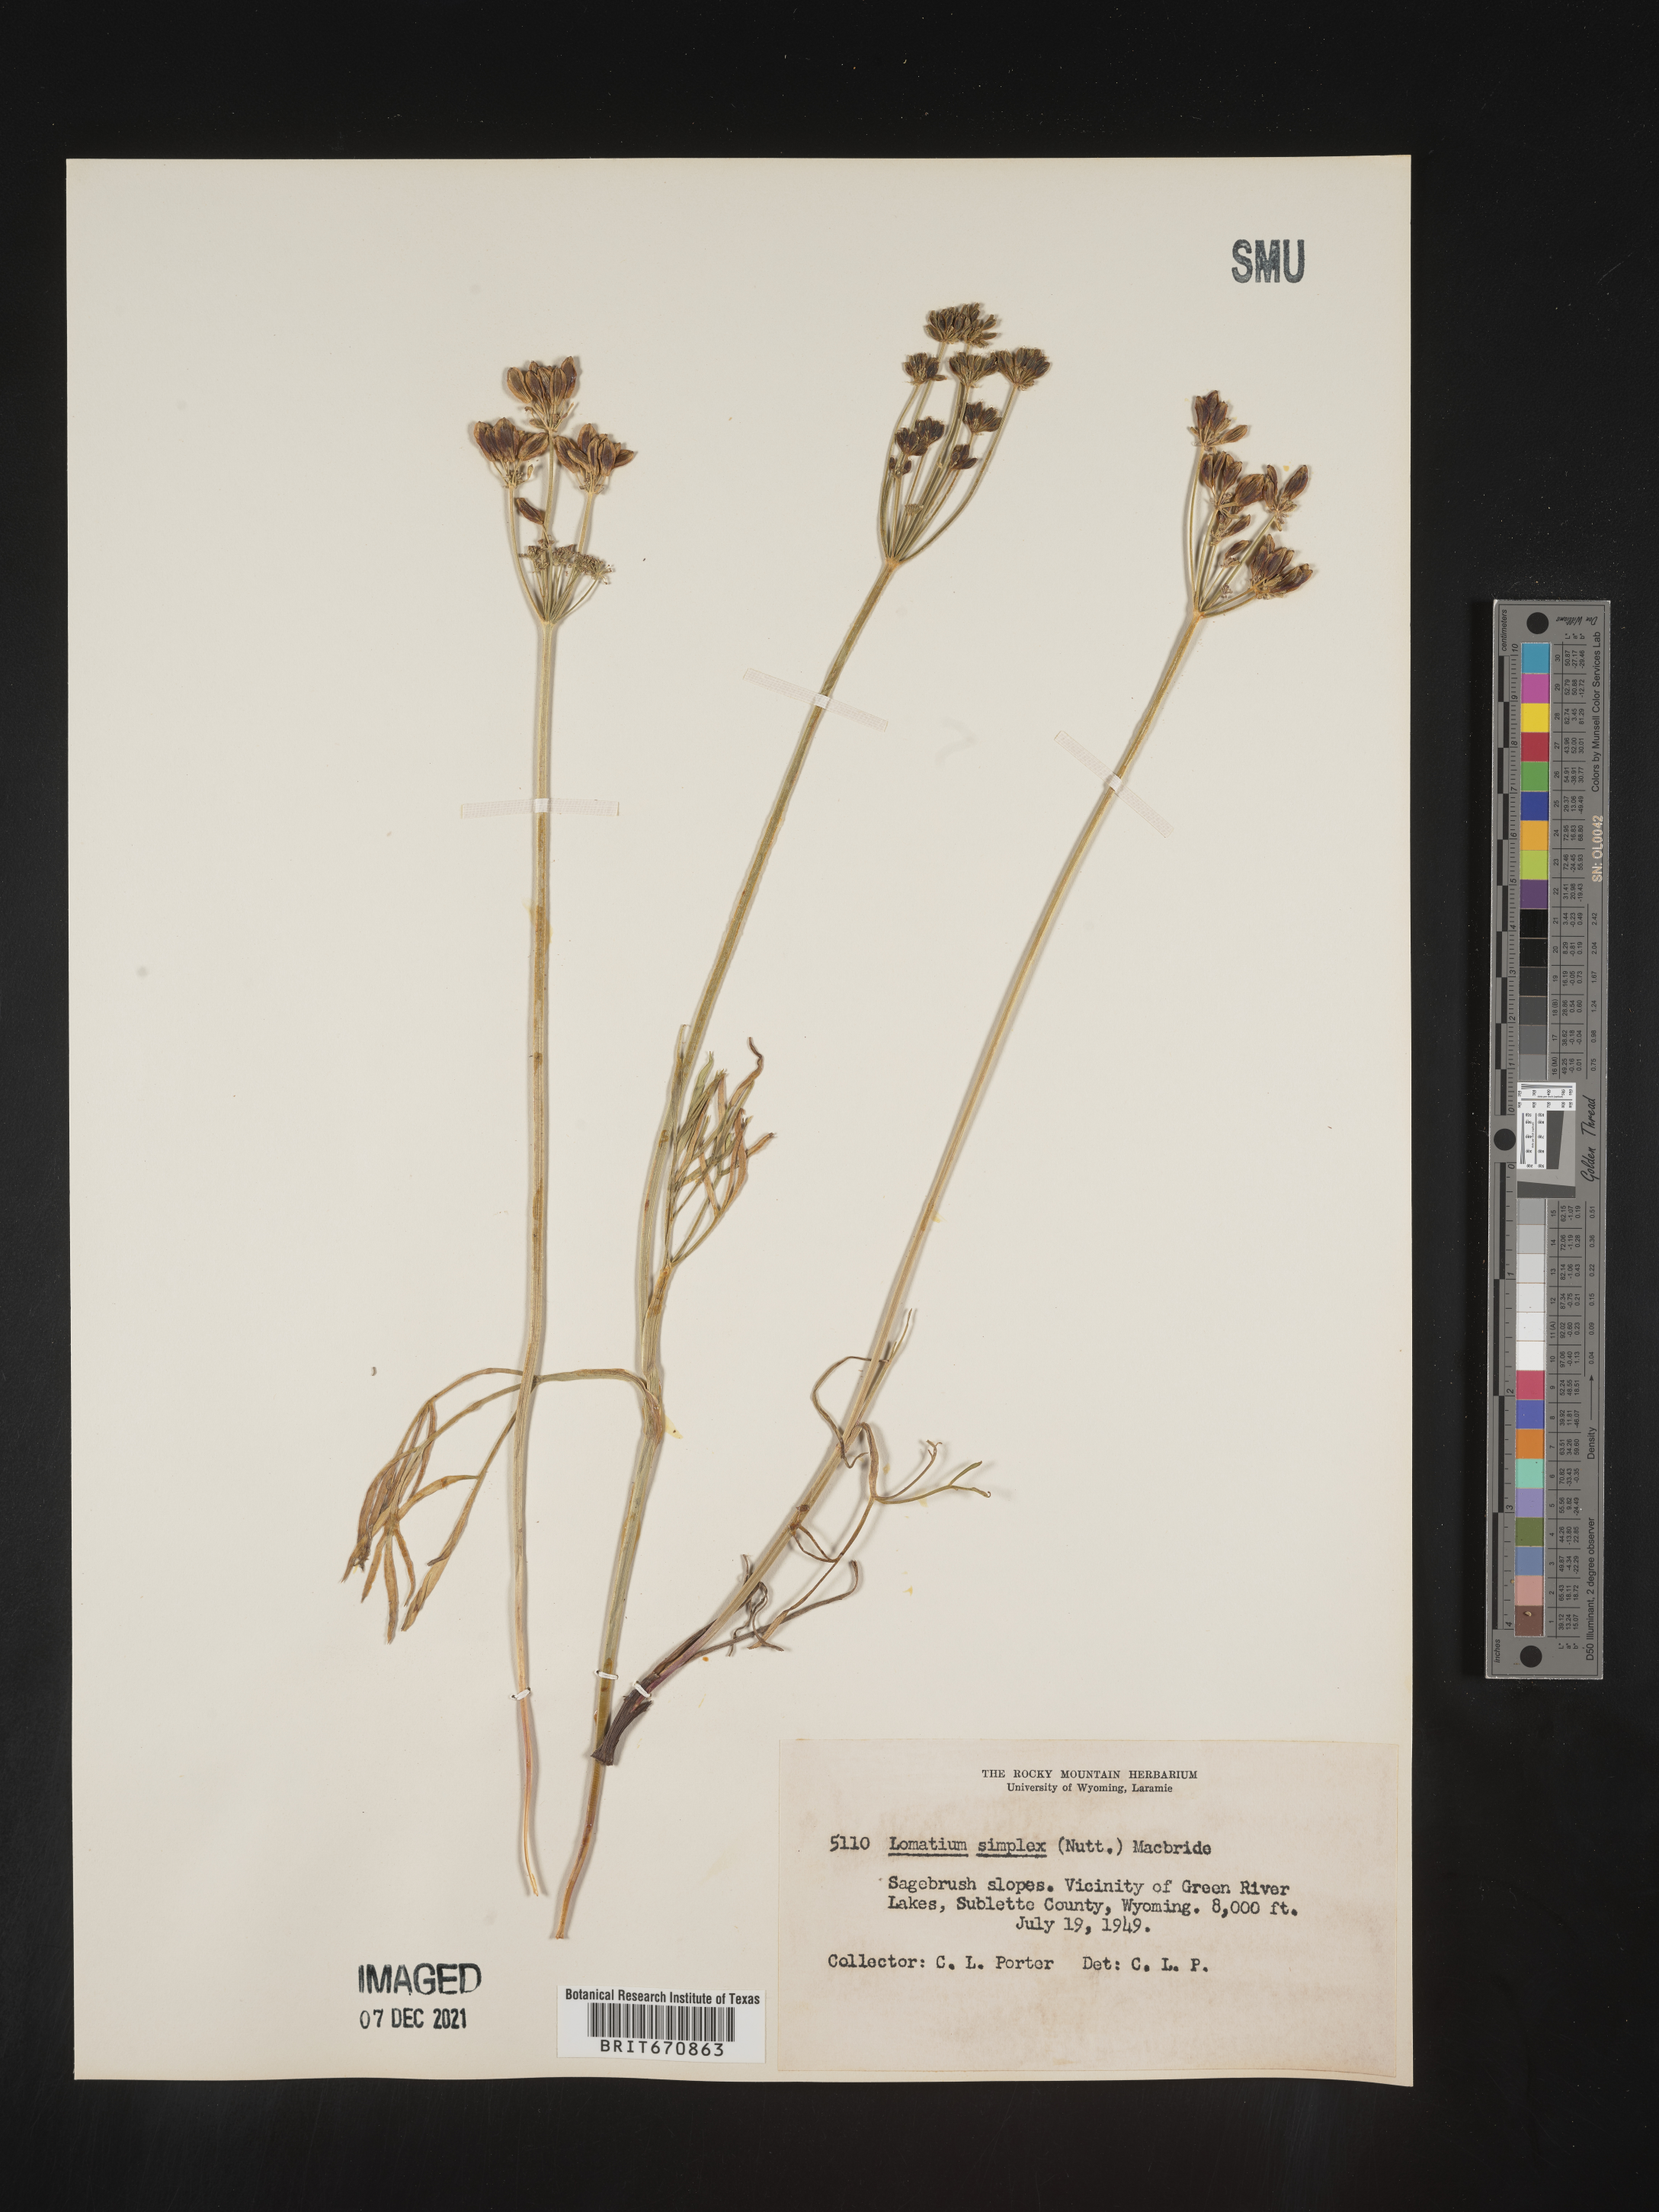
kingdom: Plantae
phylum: Tracheophyta
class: Magnoliopsida
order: Apiales
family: Apiaceae
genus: Lomatium
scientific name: Lomatium simplex
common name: Great basin biscuitroot
